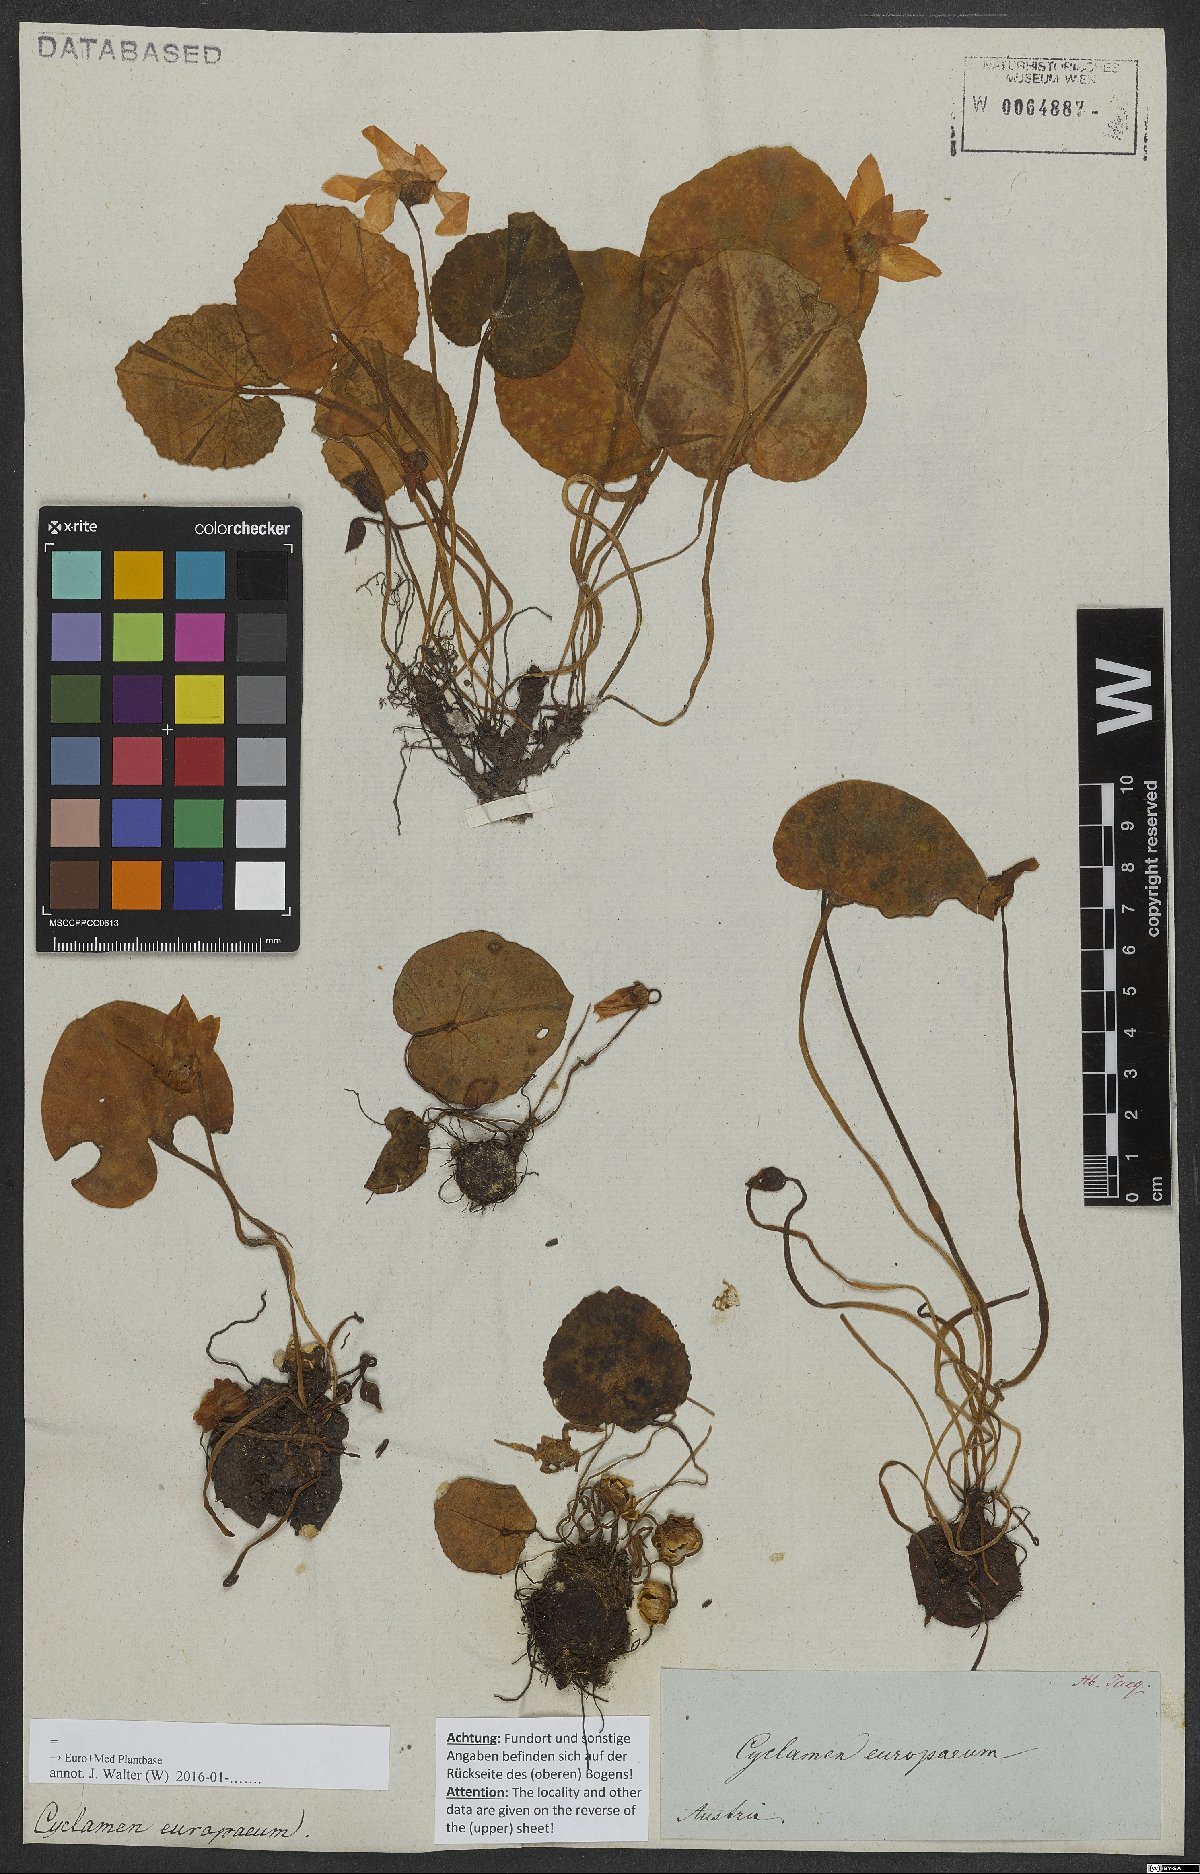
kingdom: Plantae
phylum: Tracheophyta
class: Magnoliopsida
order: Ericales
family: Primulaceae
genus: Cyclamen
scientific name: Cyclamen purpurascens
